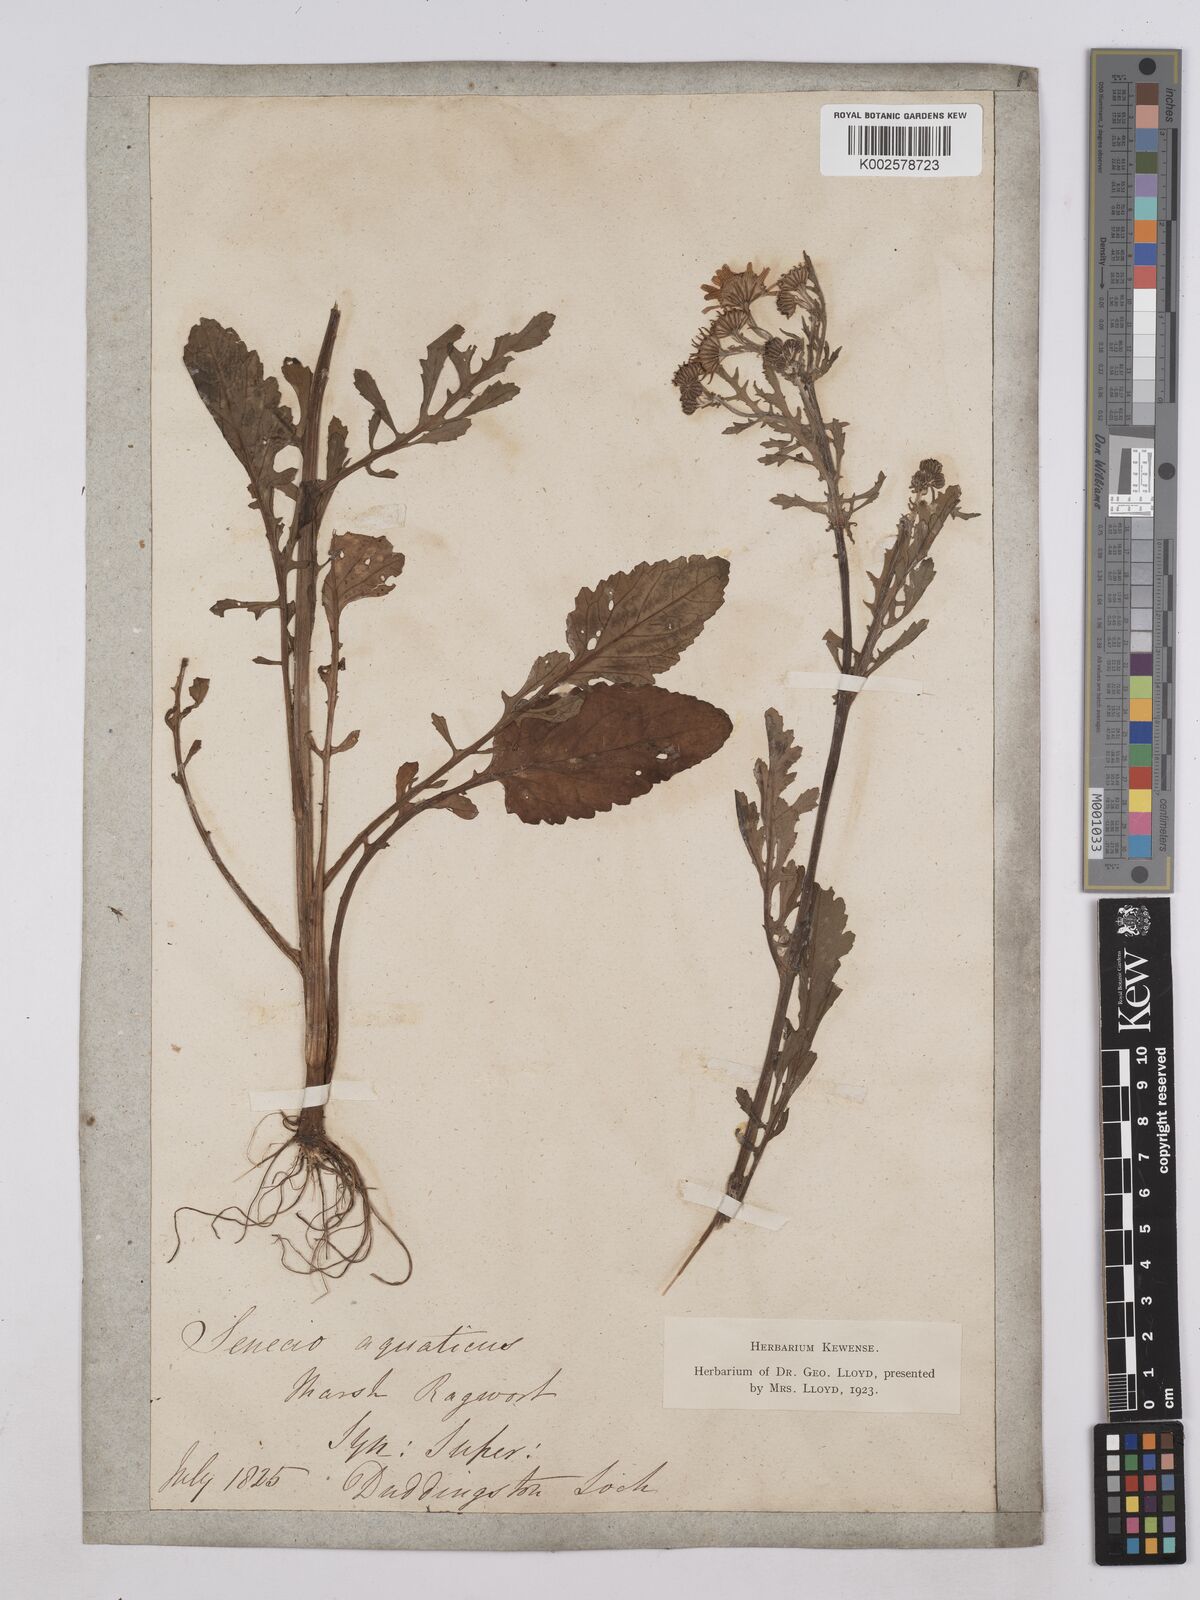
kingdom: Plantae
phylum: Tracheophyta
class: Magnoliopsida
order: Asterales
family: Asteraceae
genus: Jacobaea
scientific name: Jacobaea aquatica
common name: Water ragwort
